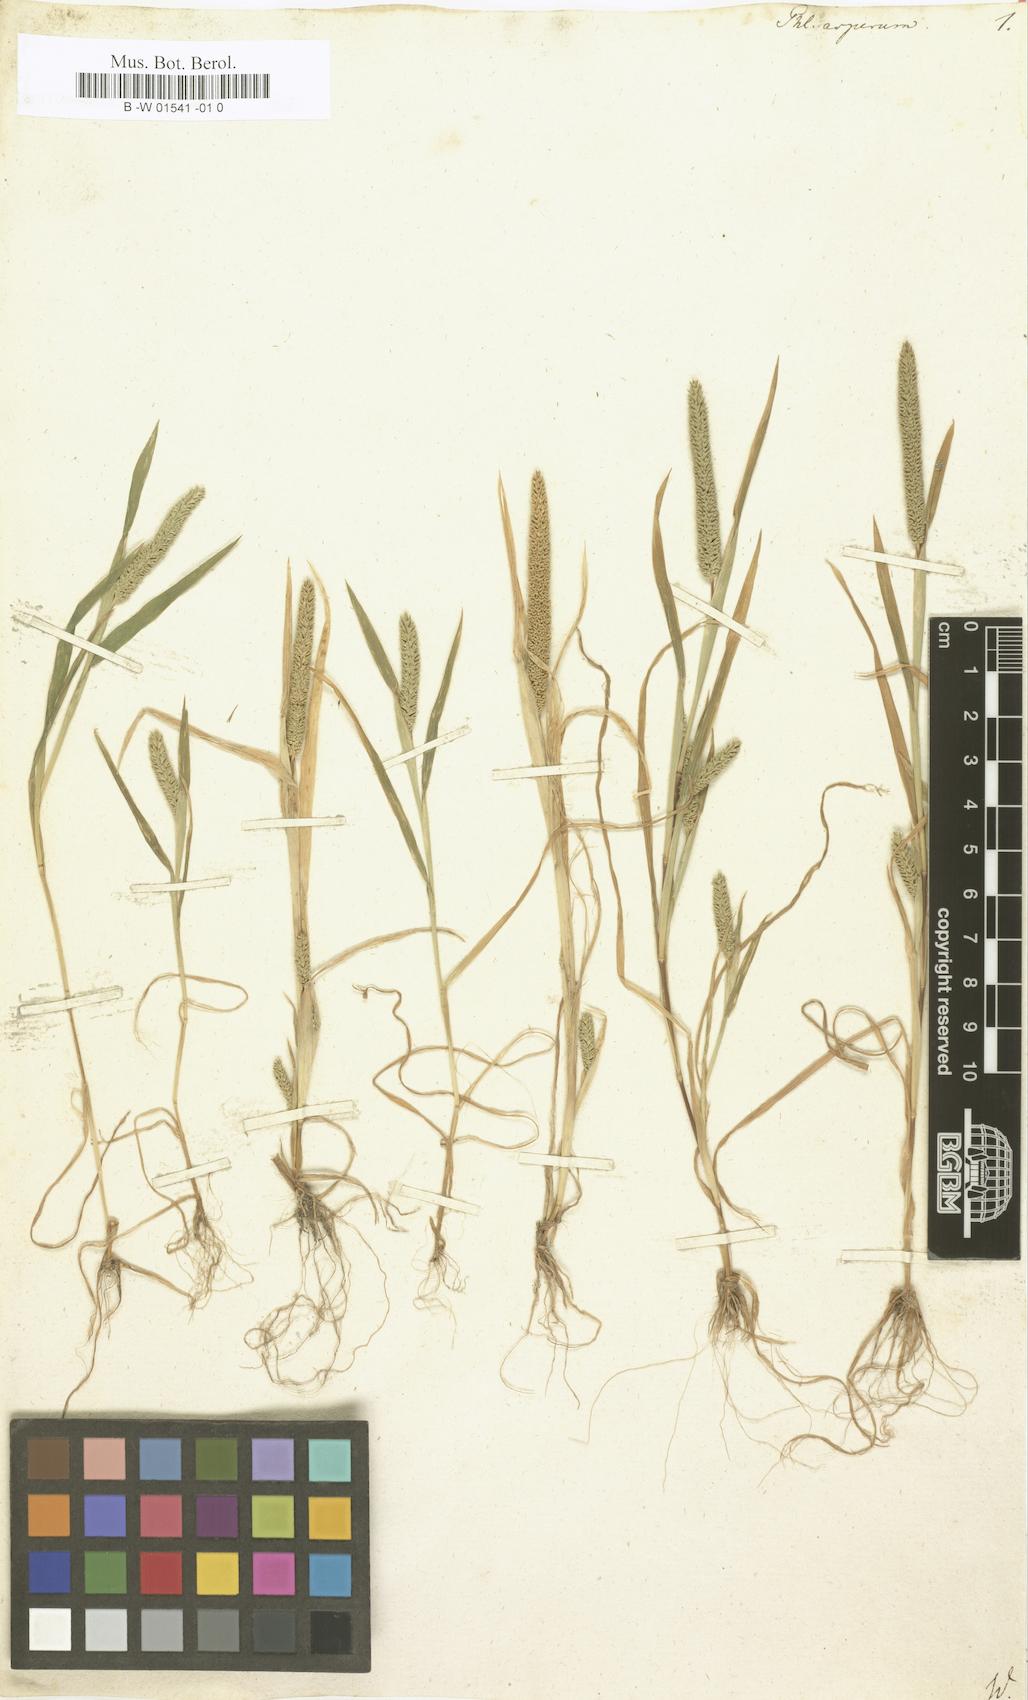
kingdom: Plantae
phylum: Tracheophyta
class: Liliopsida
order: Poales
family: Poaceae
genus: Phleum
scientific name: Phleum paniculatum
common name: British timothy
